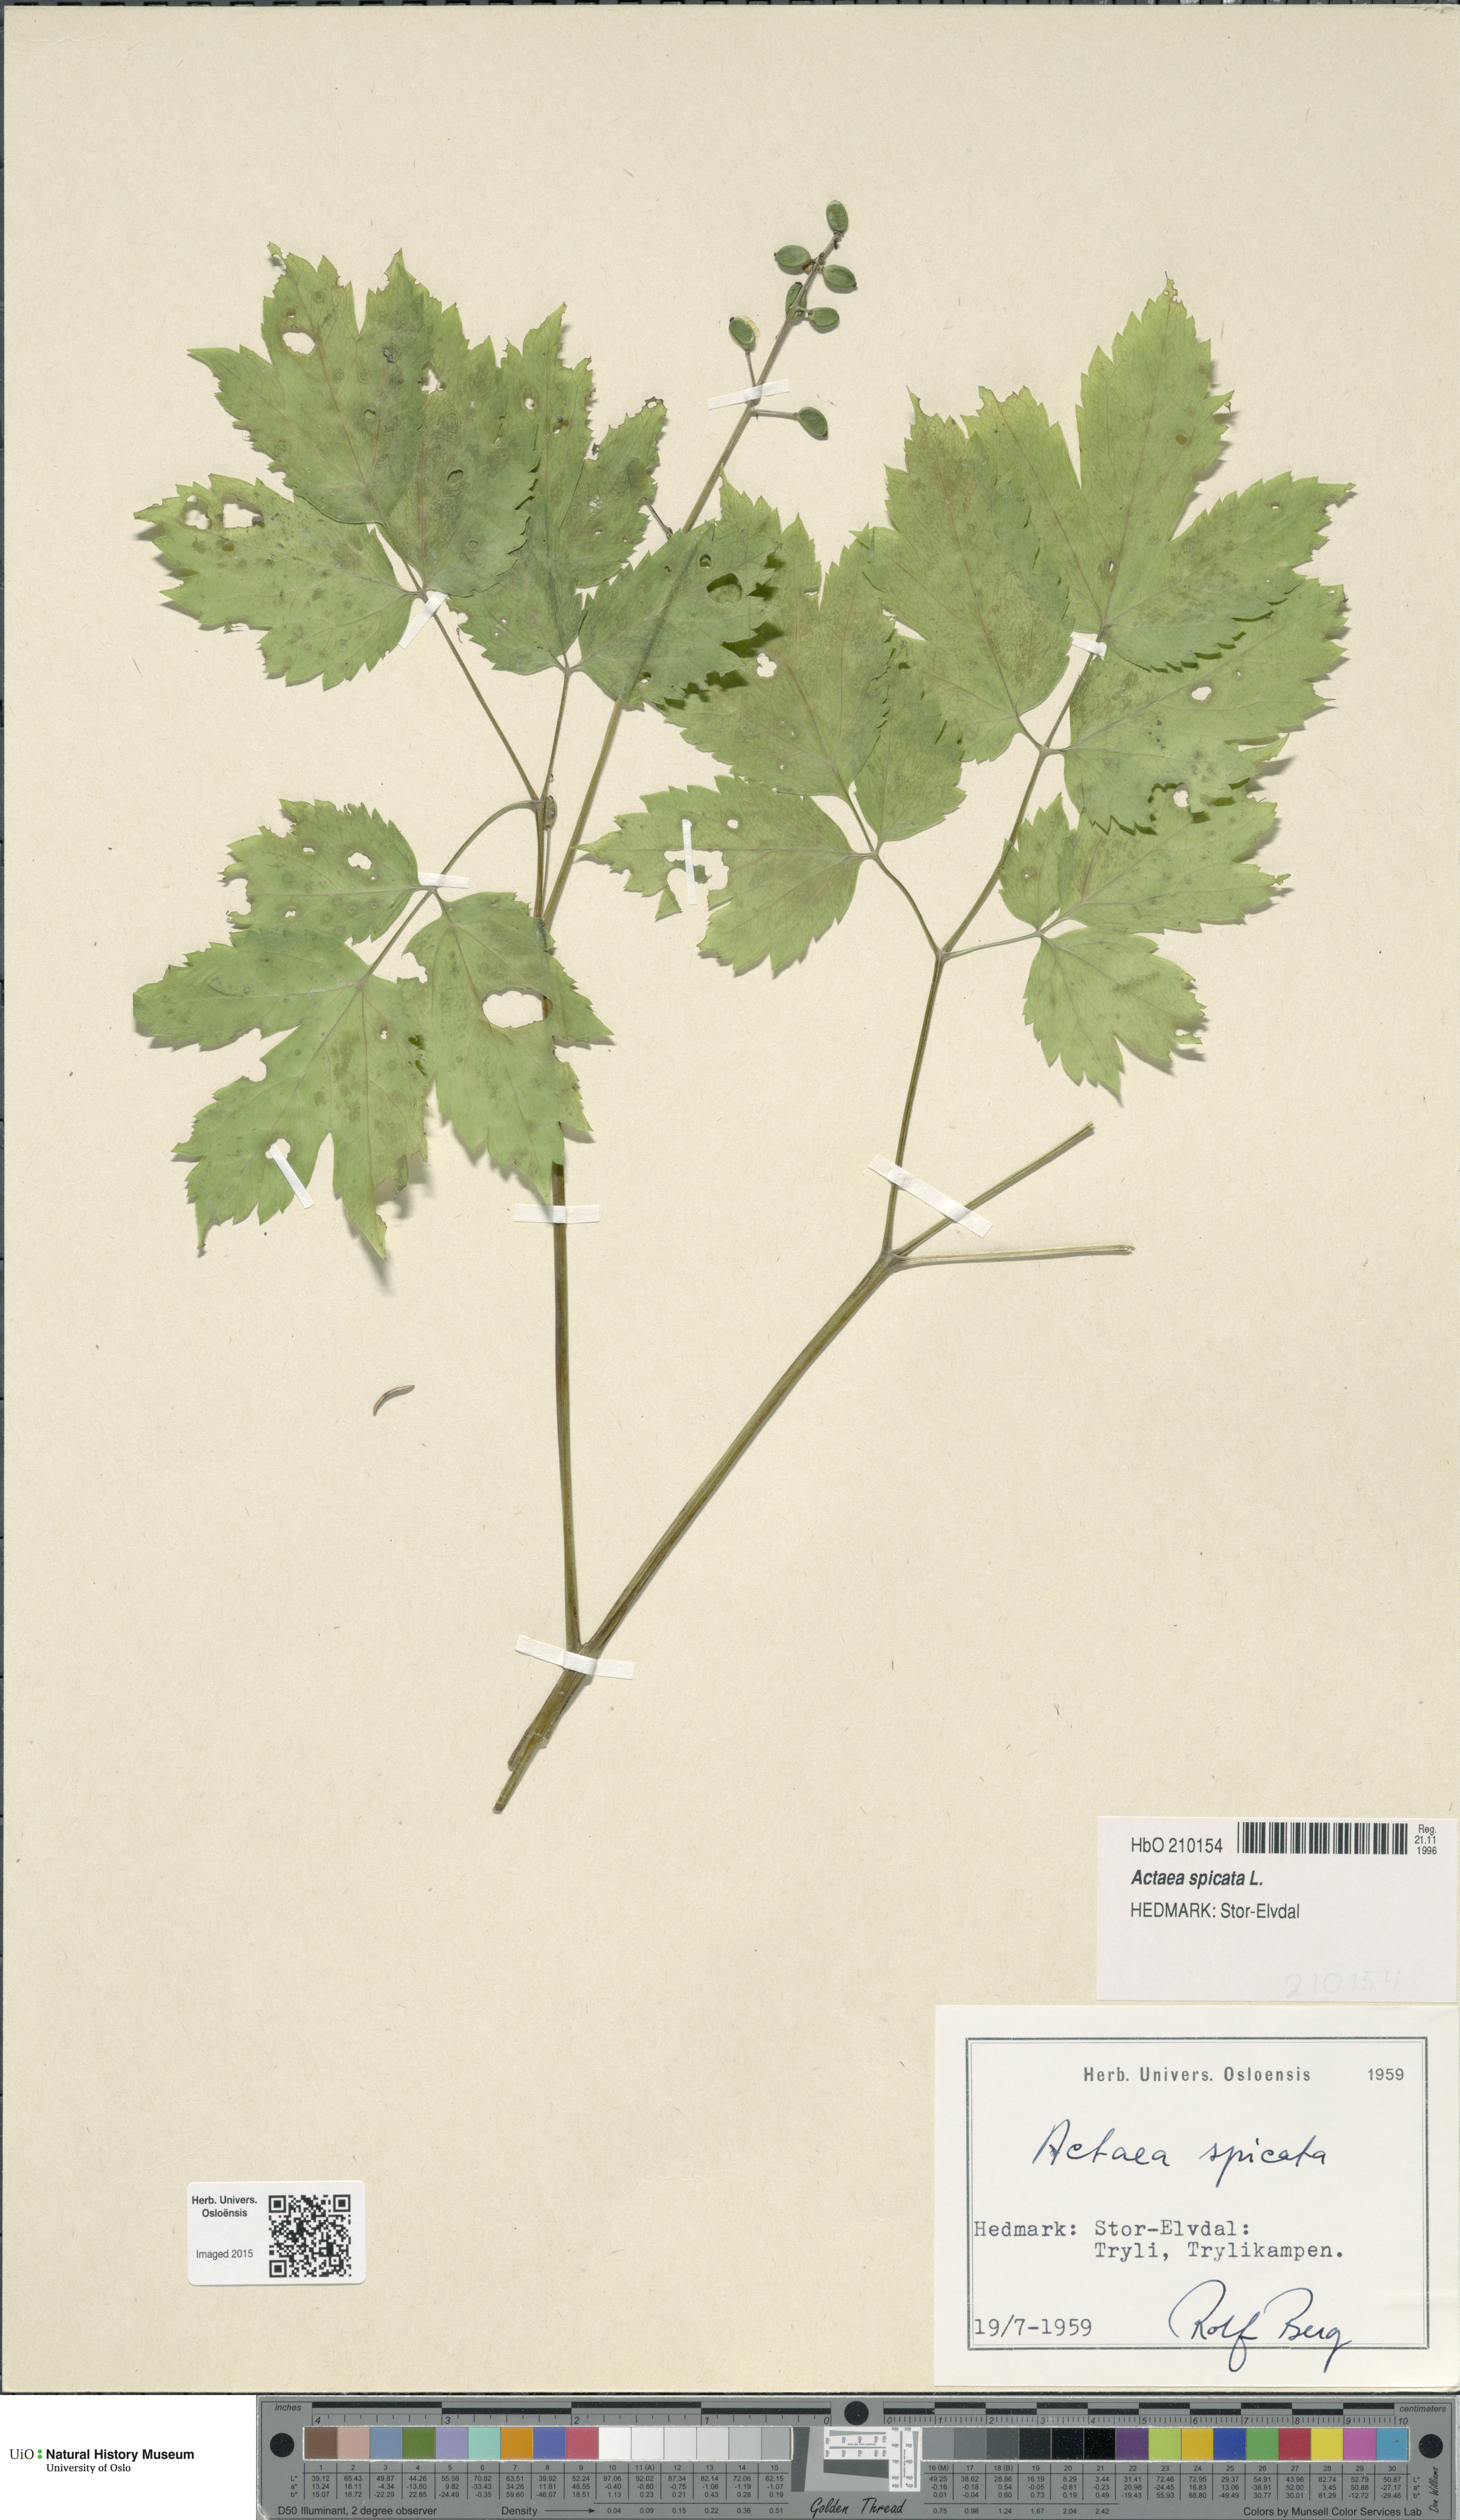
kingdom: Plantae
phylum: Tracheophyta
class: Magnoliopsida
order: Ranunculales
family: Ranunculaceae
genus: Actaea
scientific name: Actaea spicata
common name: Baneberry
